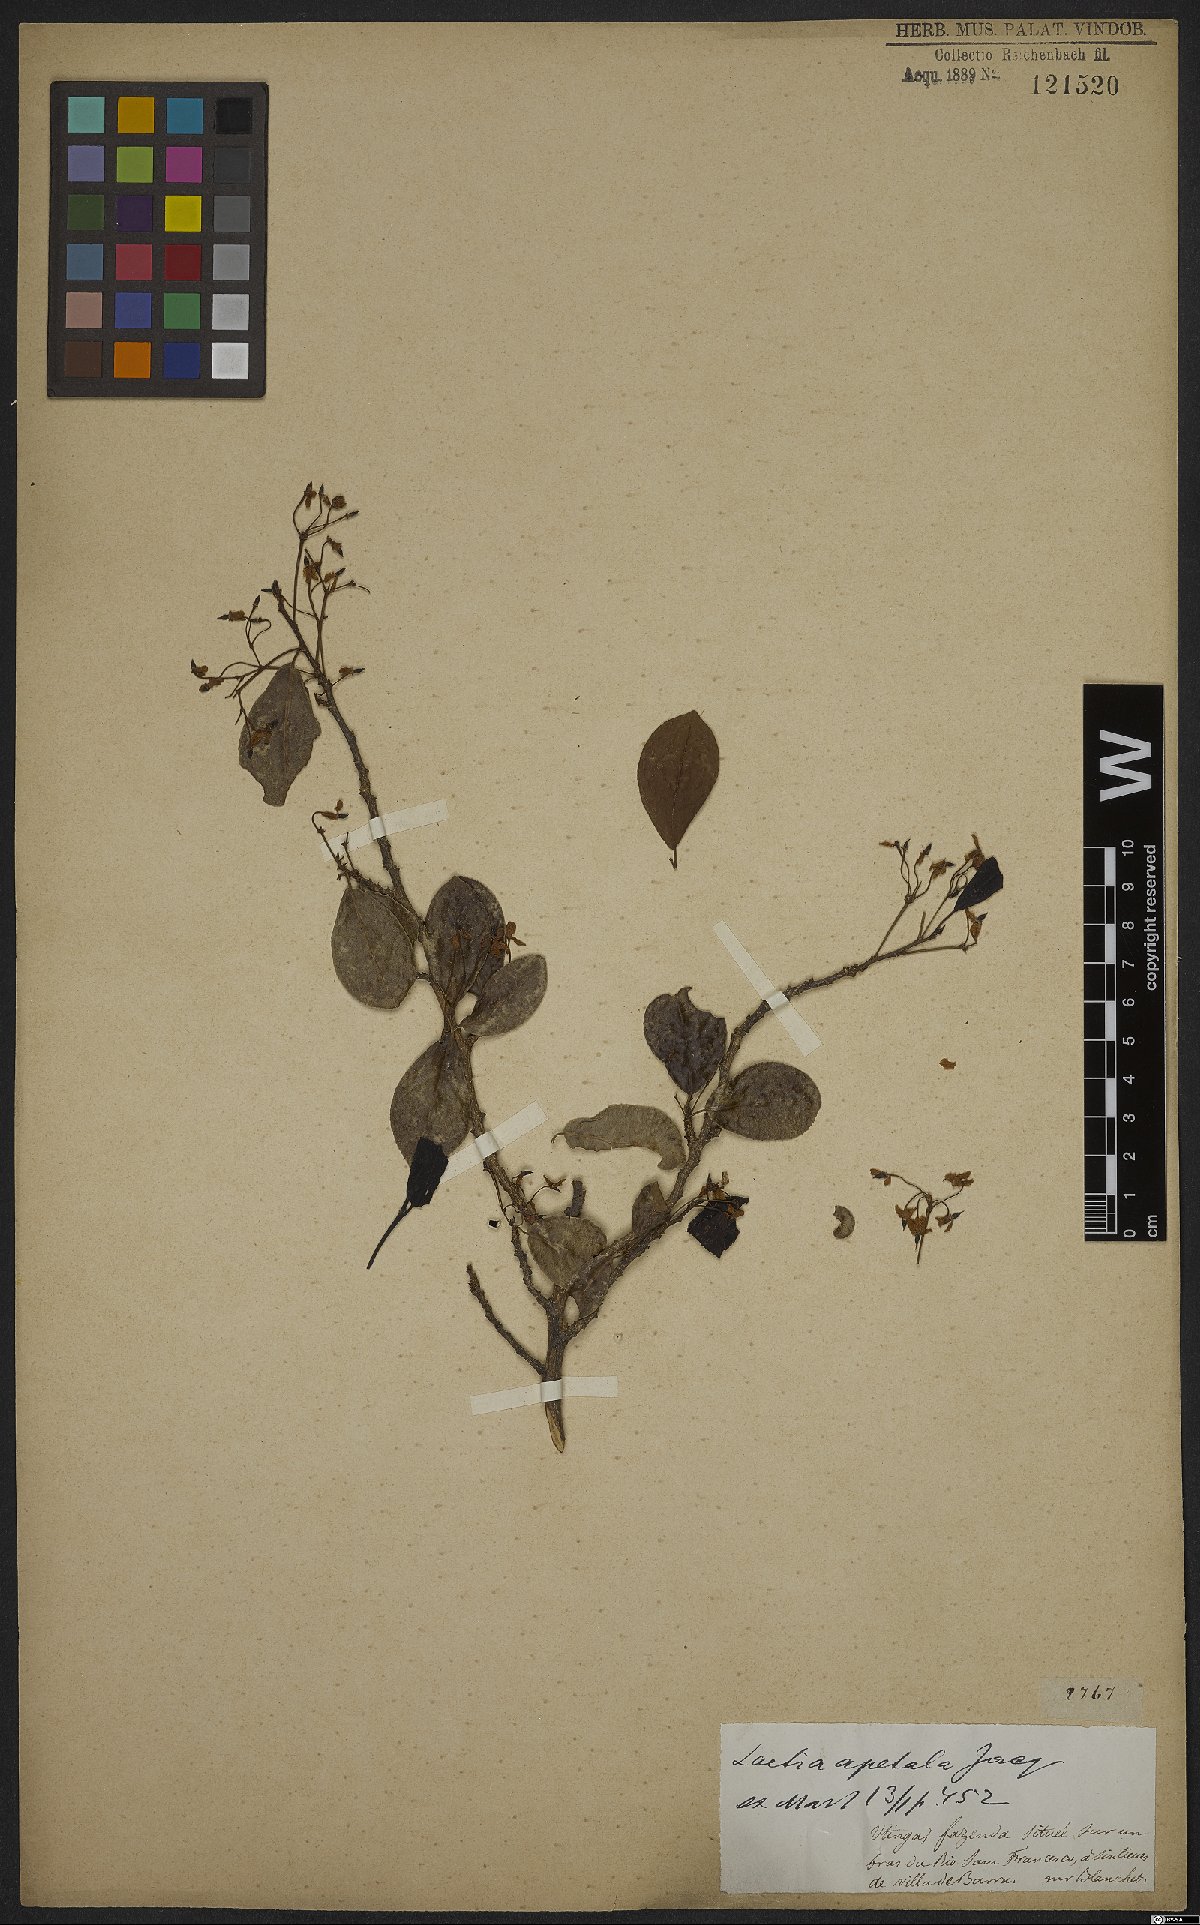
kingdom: Plantae
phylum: Tracheophyta
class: Magnoliopsida
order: Malpighiales
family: Salicaceae
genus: Casearia
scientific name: Casearia americana
